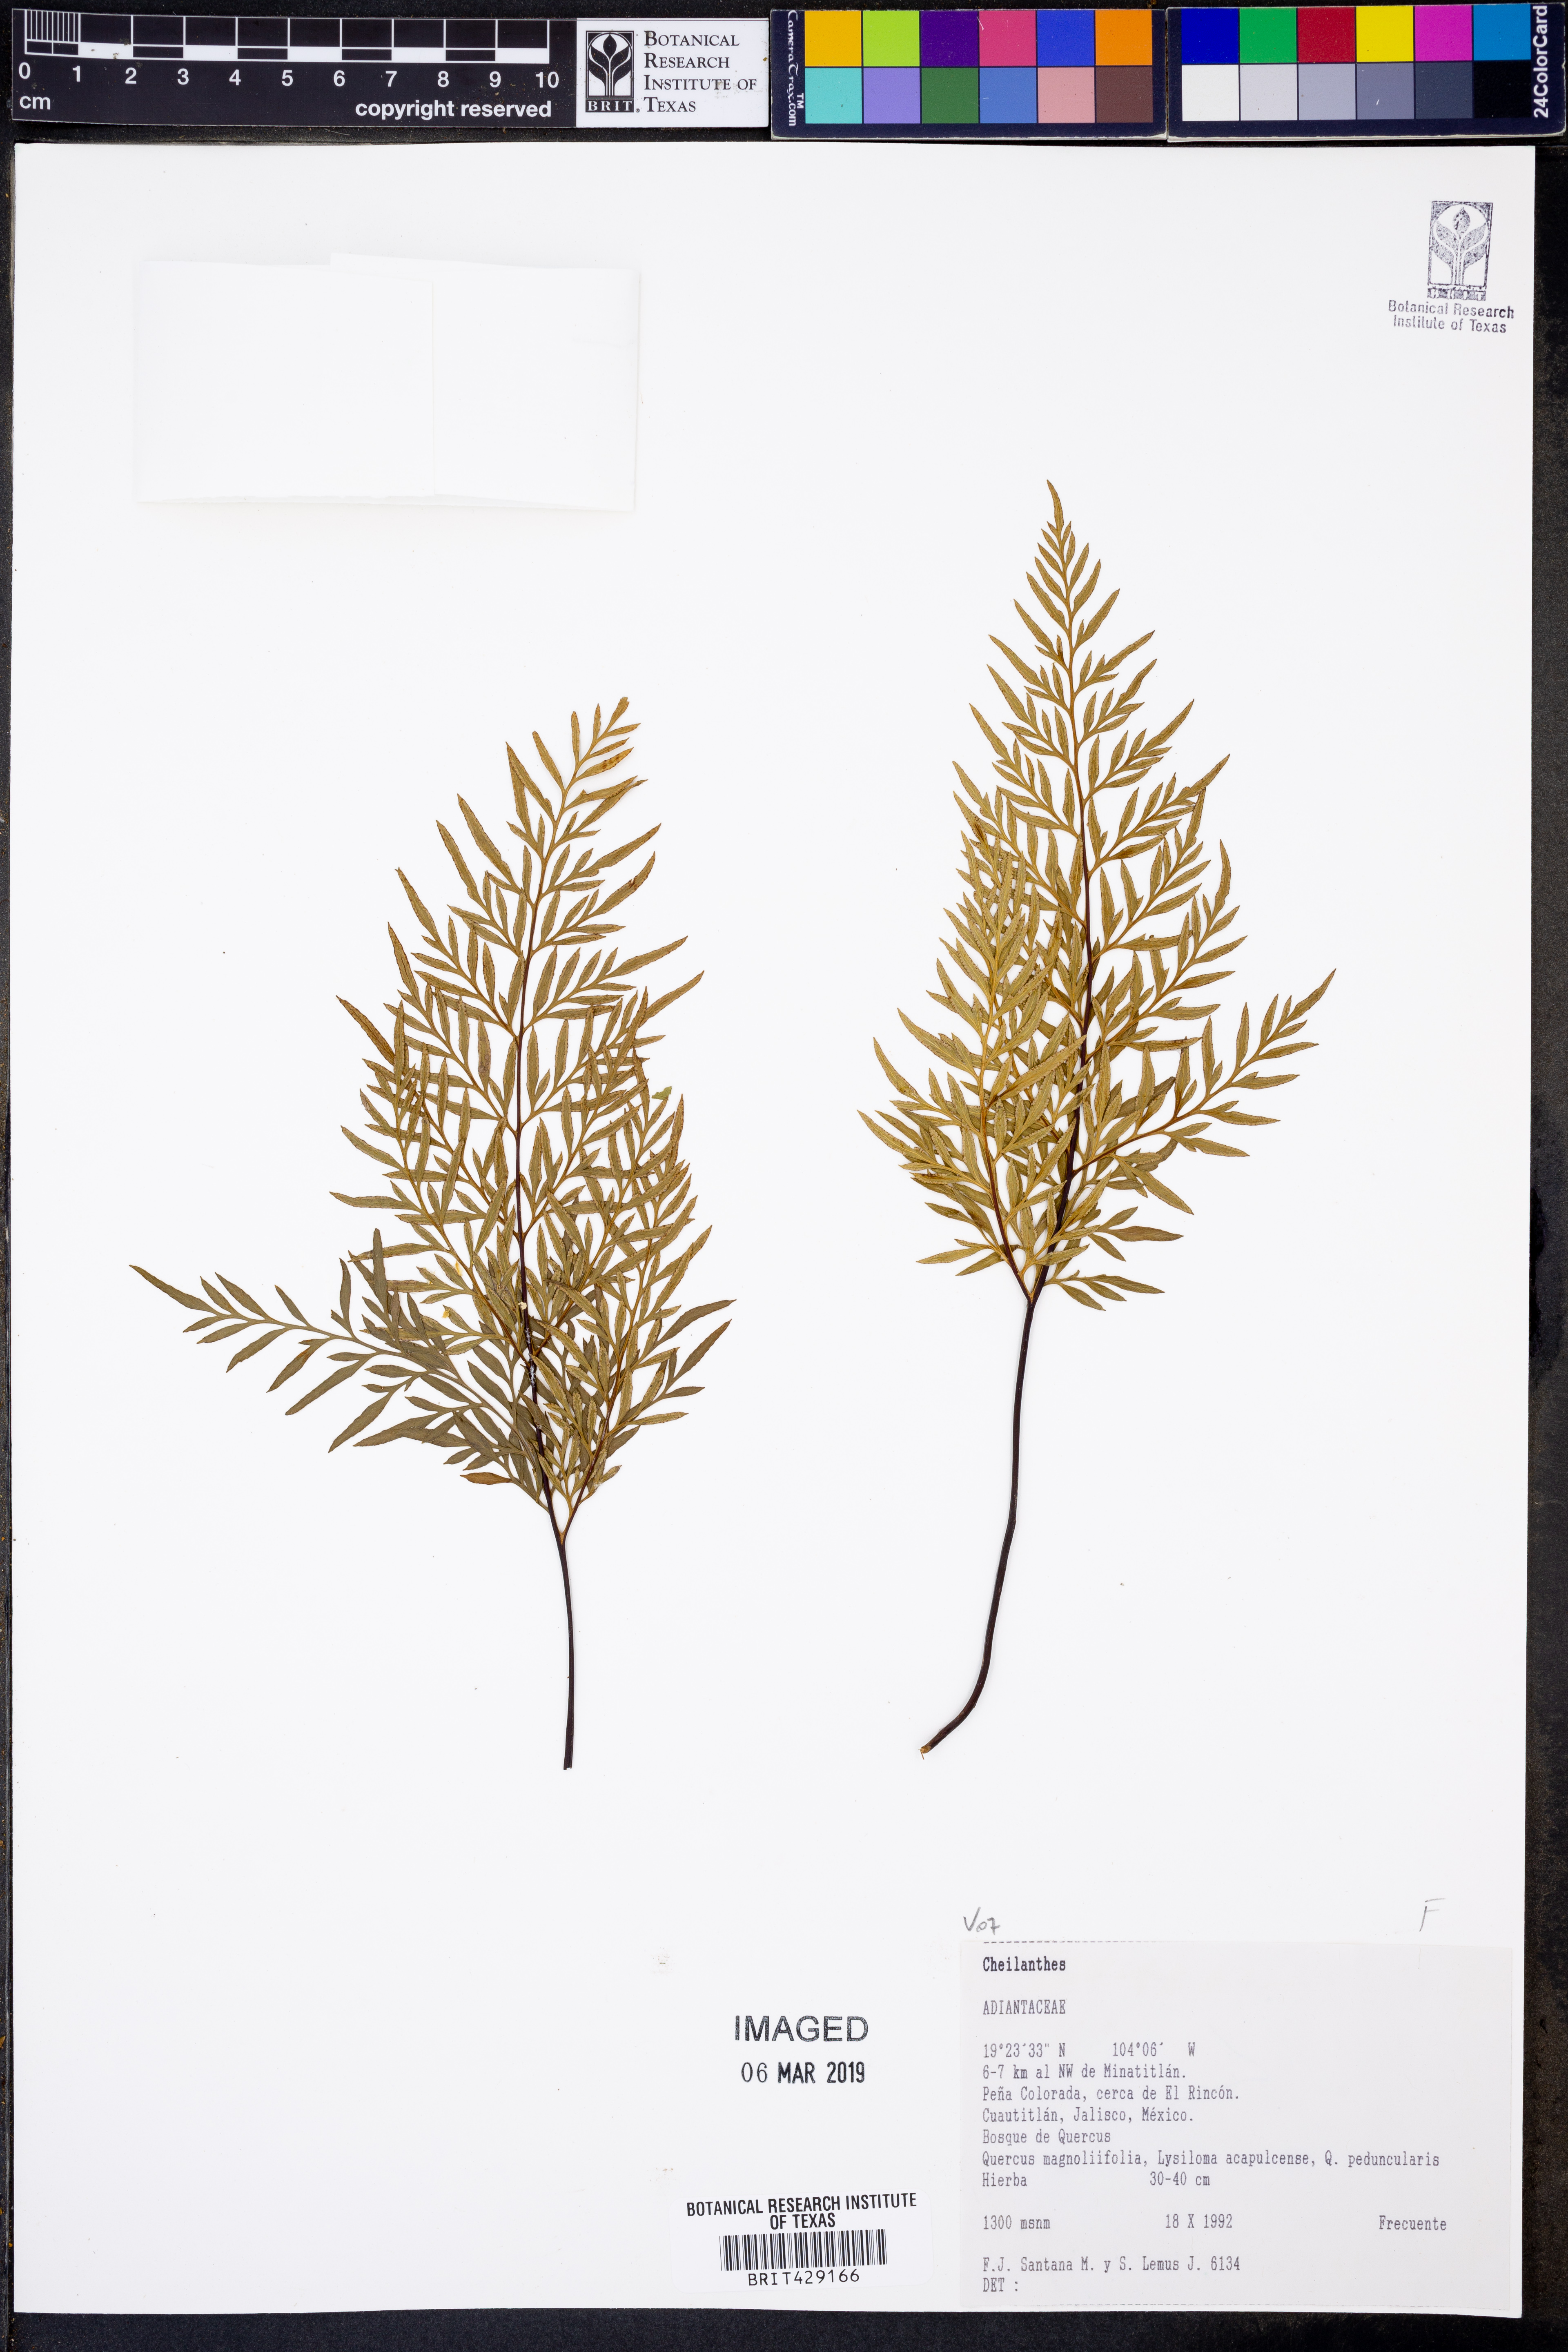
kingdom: Plantae
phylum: Tracheophyta
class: Polypodiopsida
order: Polypodiales
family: Pteridaceae
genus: Cheilanthes
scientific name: Cheilanthes
